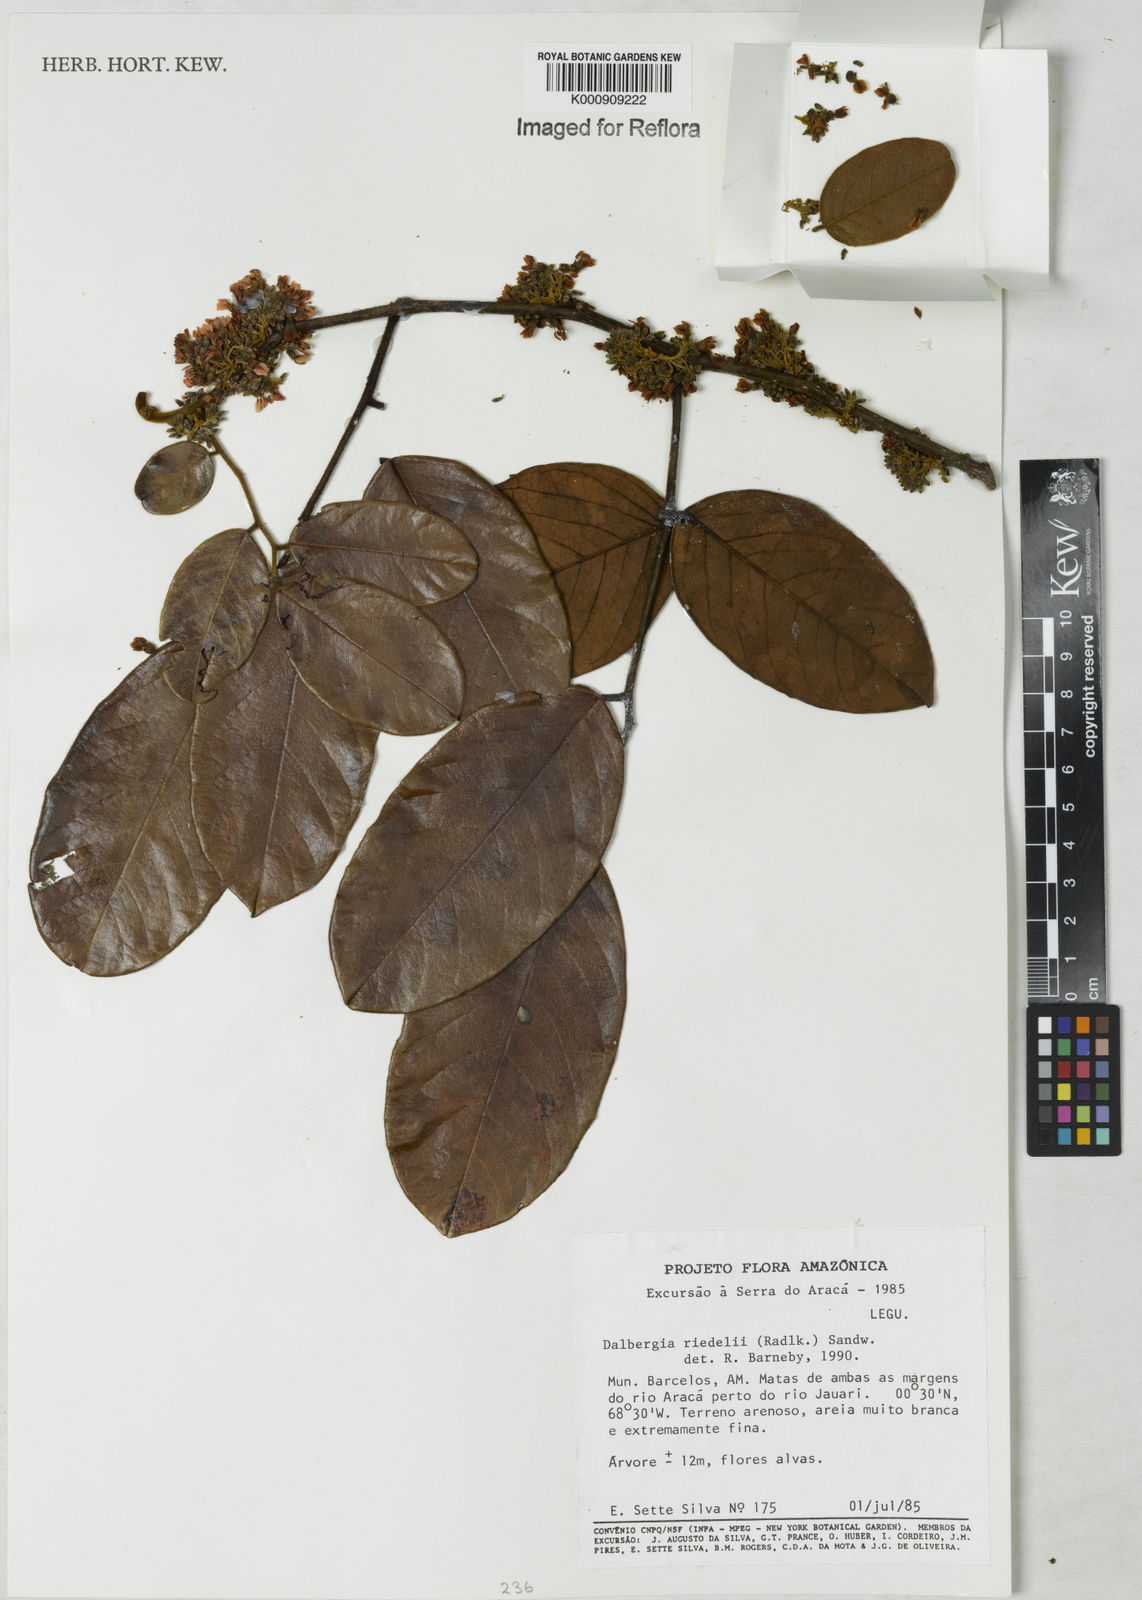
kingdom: Plantae
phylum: Tracheophyta
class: Magnoliopsida
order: Fabales
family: Fabaceae
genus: Dalbergia
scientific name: Dalbergia riedelii
